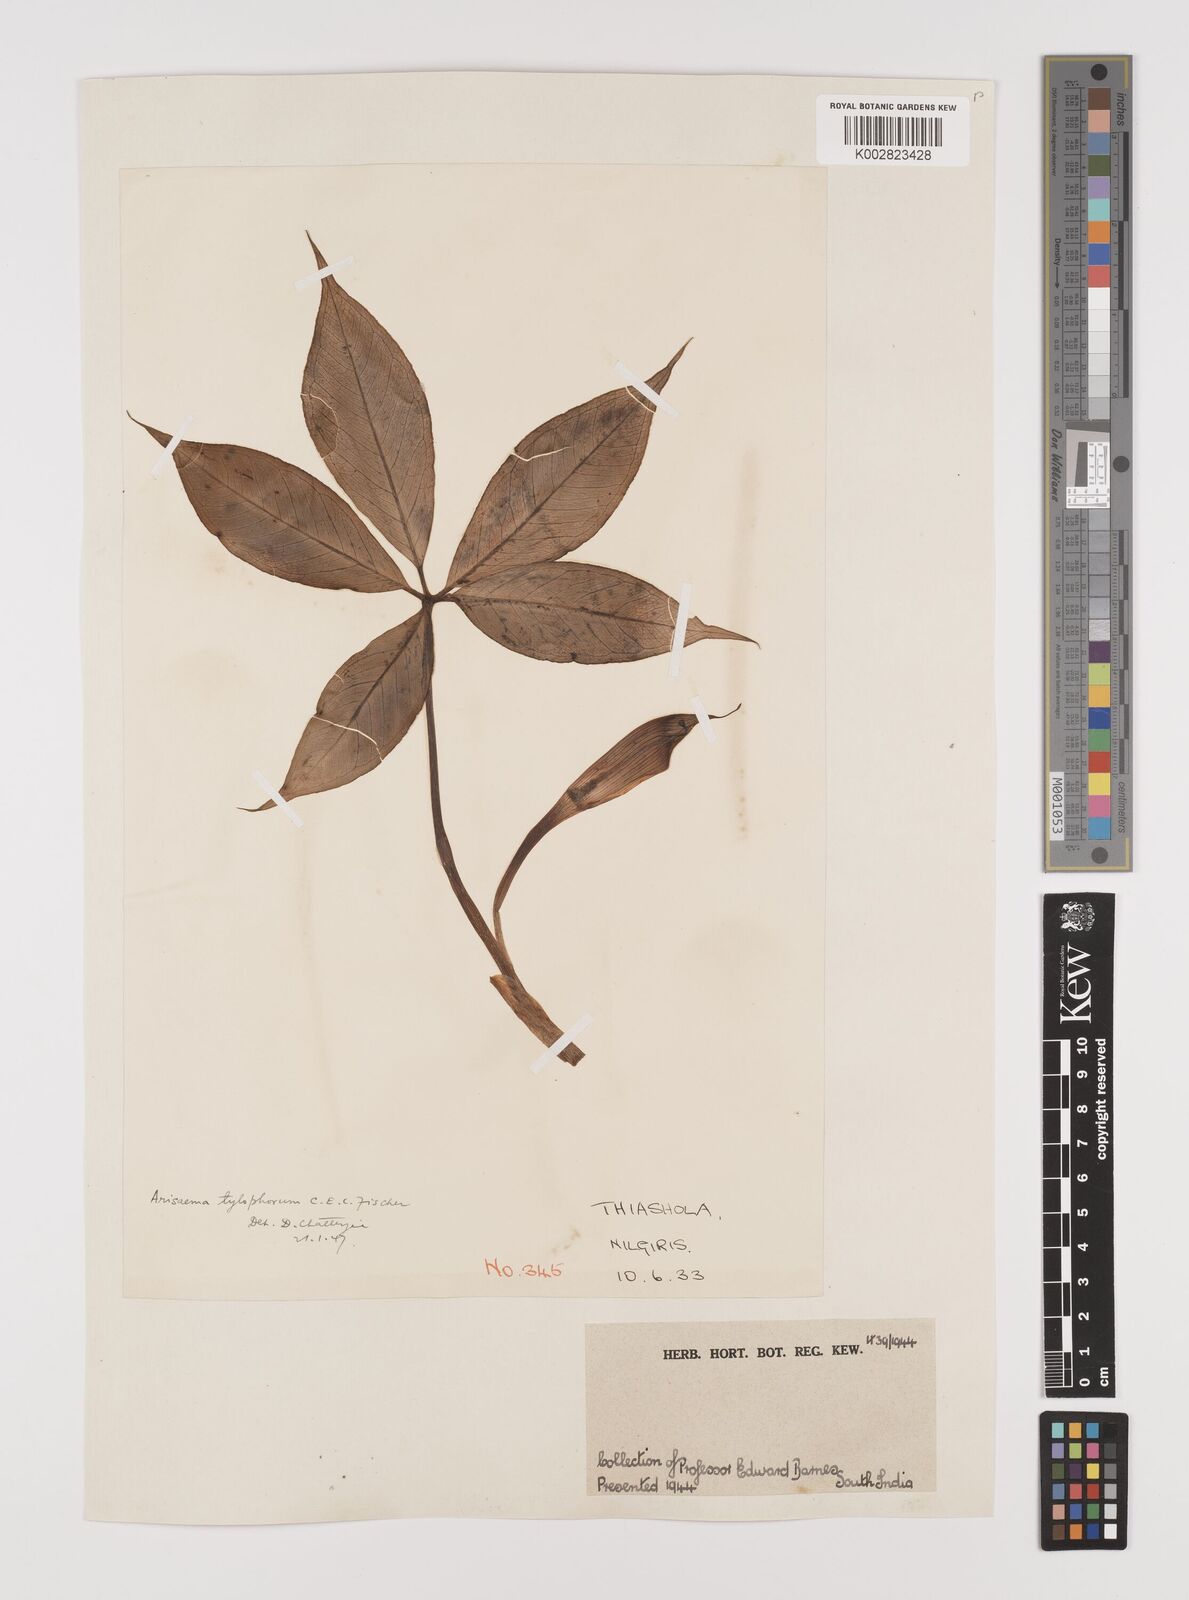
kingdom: Plantae
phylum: Tracheophyta
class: Liliopsida
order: Alismatales
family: Araceae
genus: Arisaema
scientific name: Arisaema barnesii
